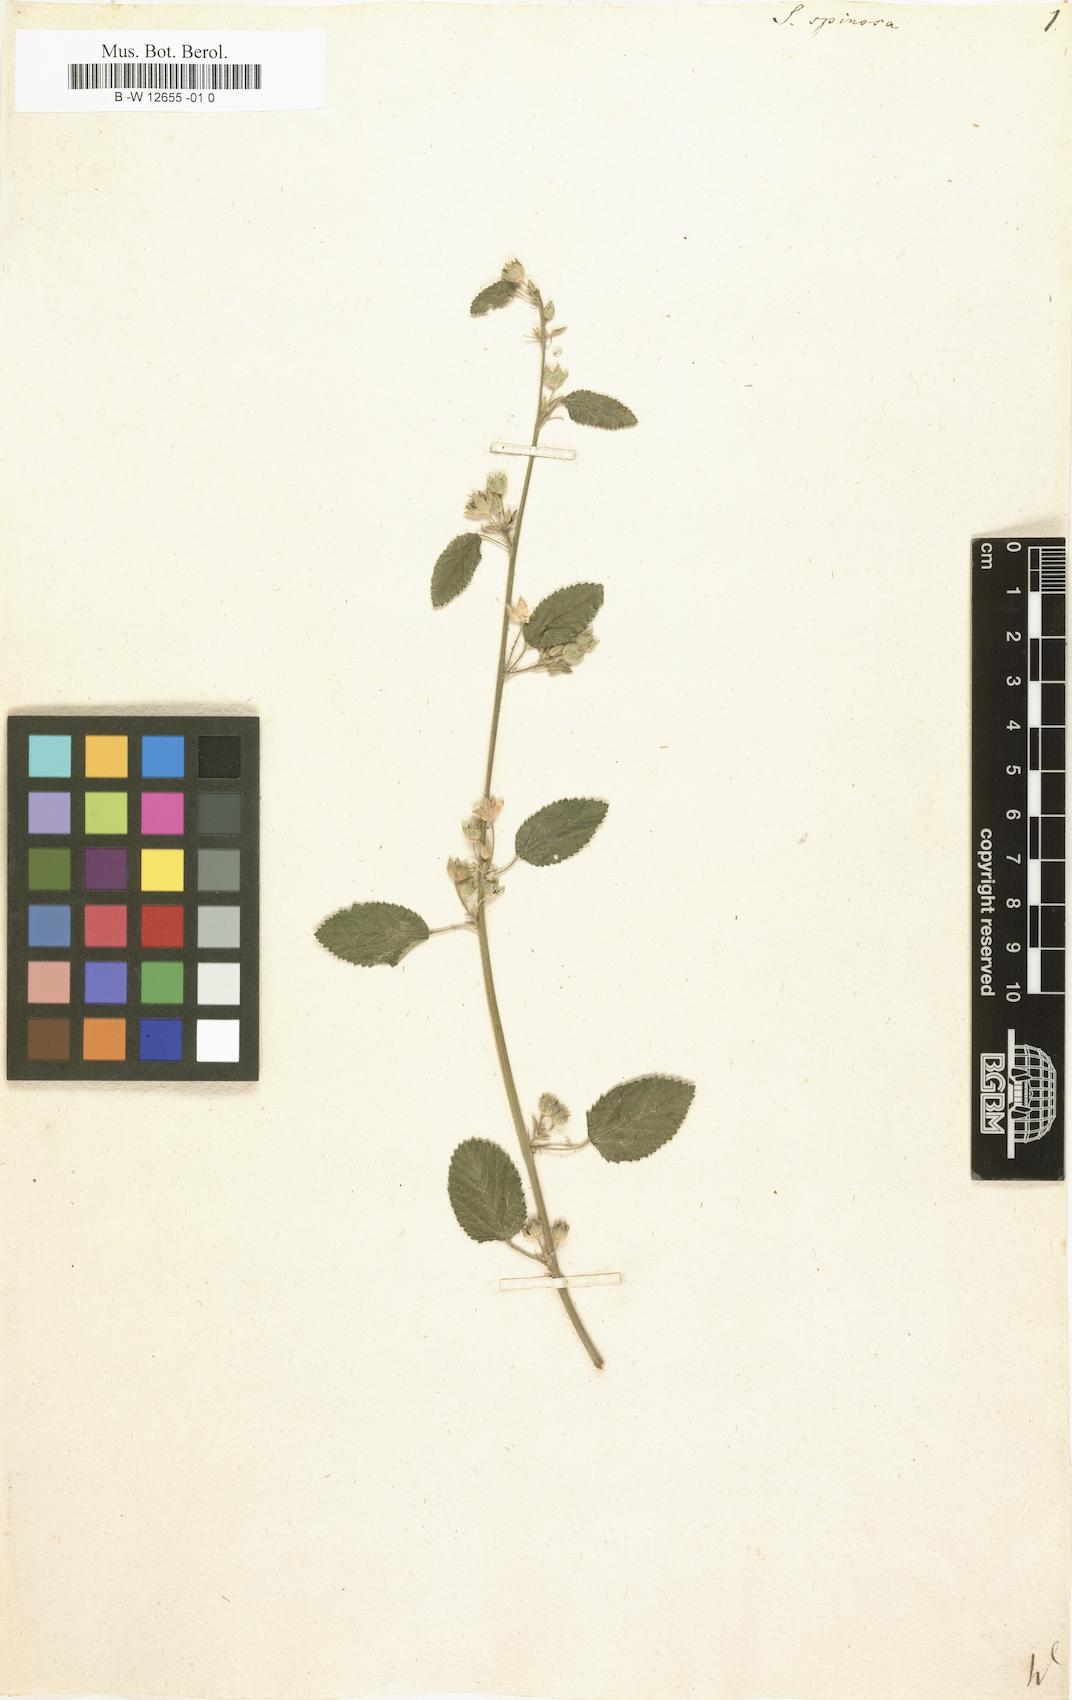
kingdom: Plantae
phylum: Tracheophyta
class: Magnoliopsida
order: Malvales
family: Malvaceae
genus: Sida
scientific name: Sida spinosa
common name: Prickly fanpetals
